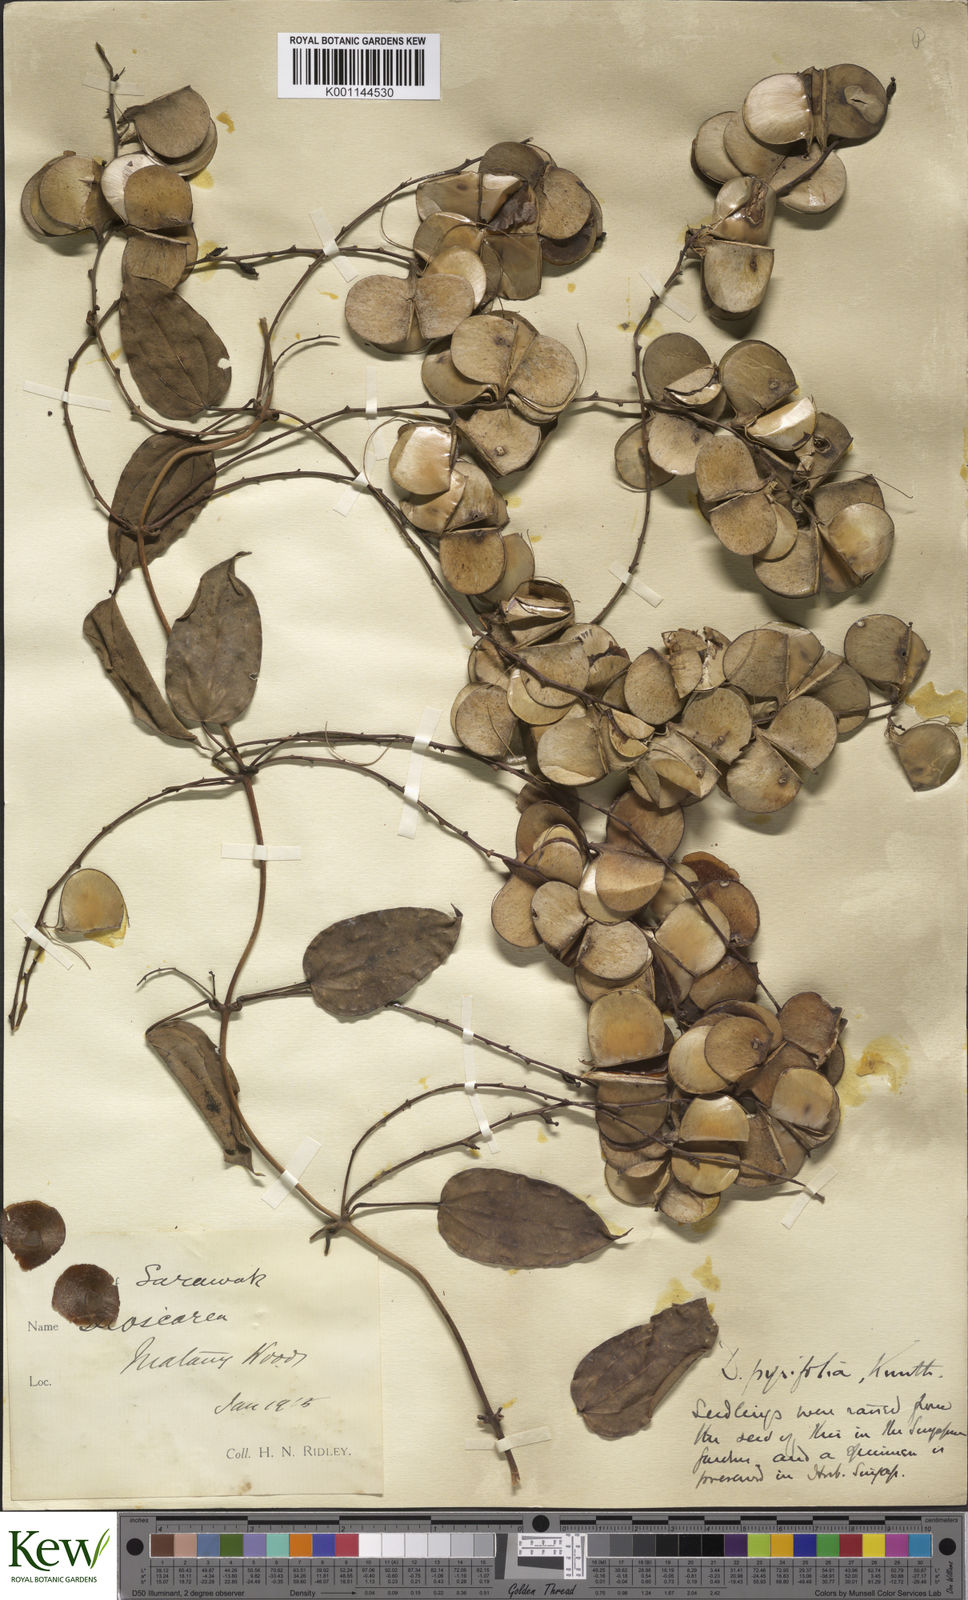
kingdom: Plantae
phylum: Tracheophyta
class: Liliopsida
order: Dioscoreales
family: Dioscoreaceae
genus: Dioscorea
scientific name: Dioscorea pyrifolia
